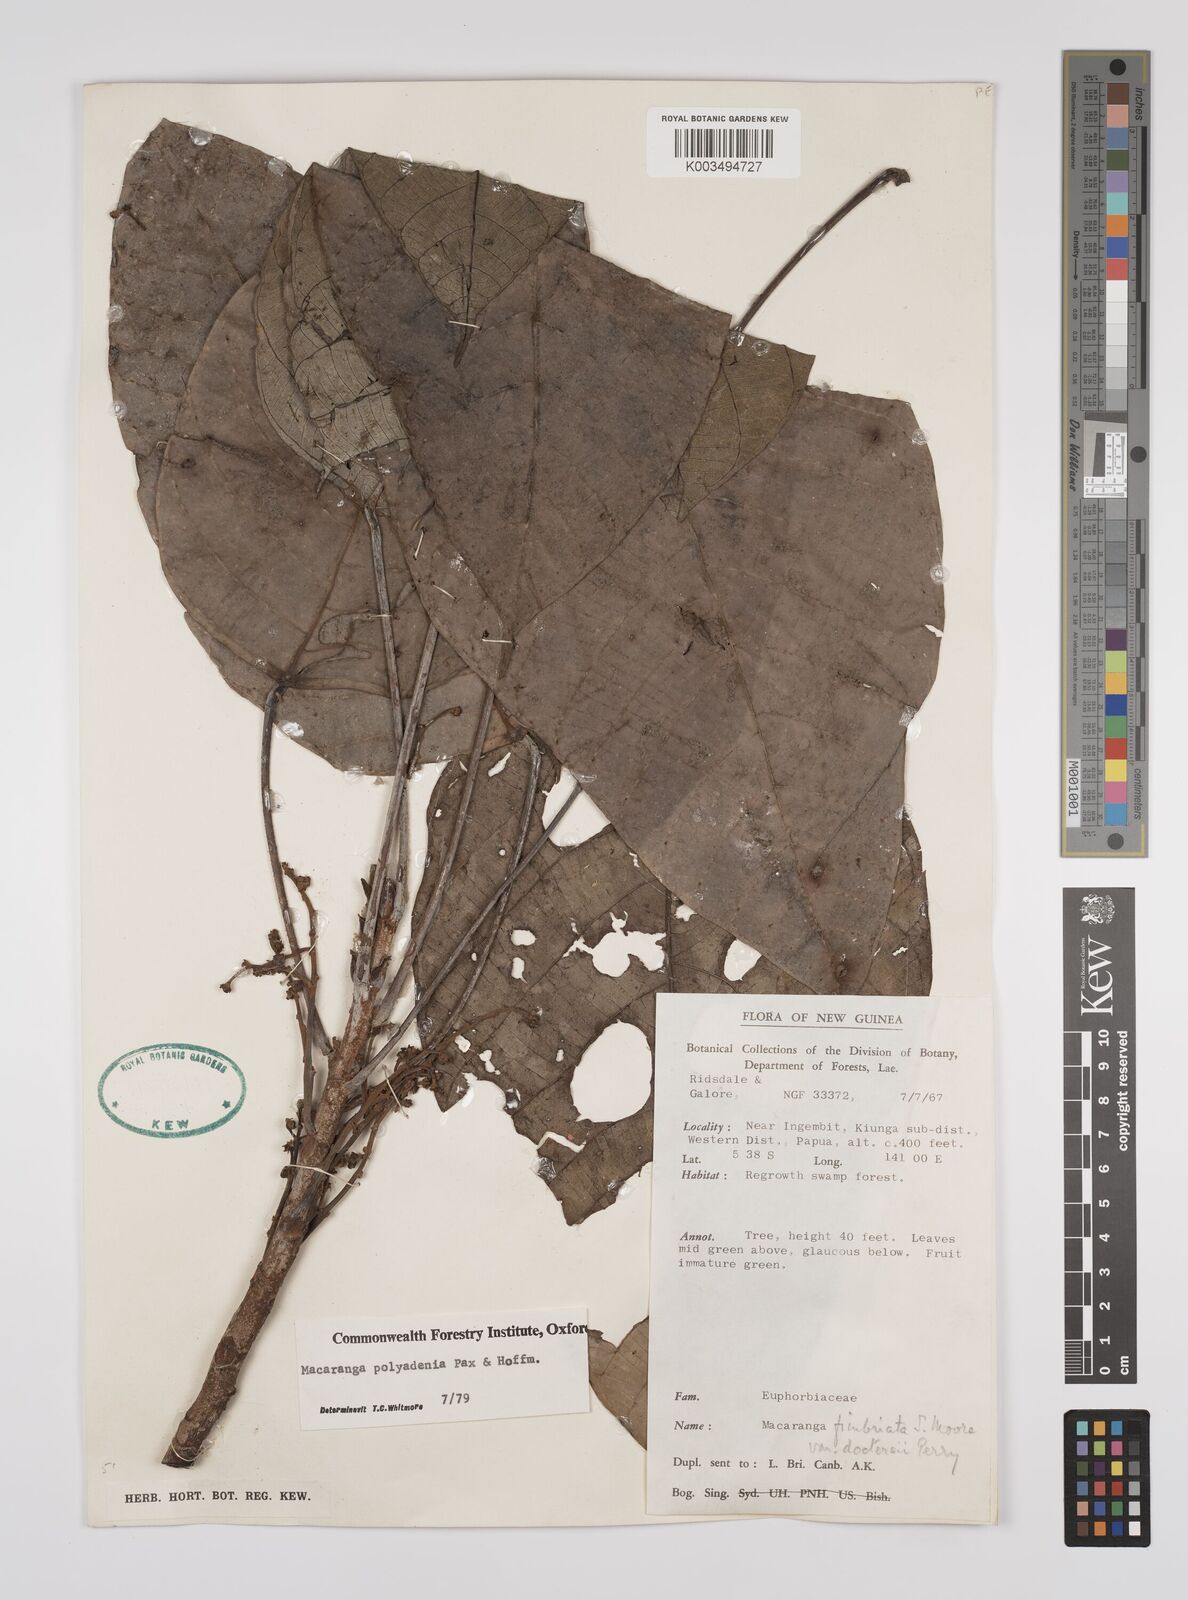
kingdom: Plantae
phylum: Tracheophyta
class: Magnoliopsida
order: Malpighiales
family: Euphorbiaceae
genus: Macaranga
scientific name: Macaranga polyadenia
